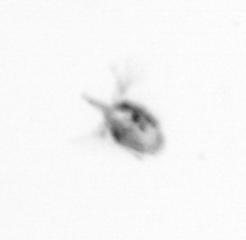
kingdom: Animalia
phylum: Arthropoda
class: Copepoda
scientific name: Copepoda
